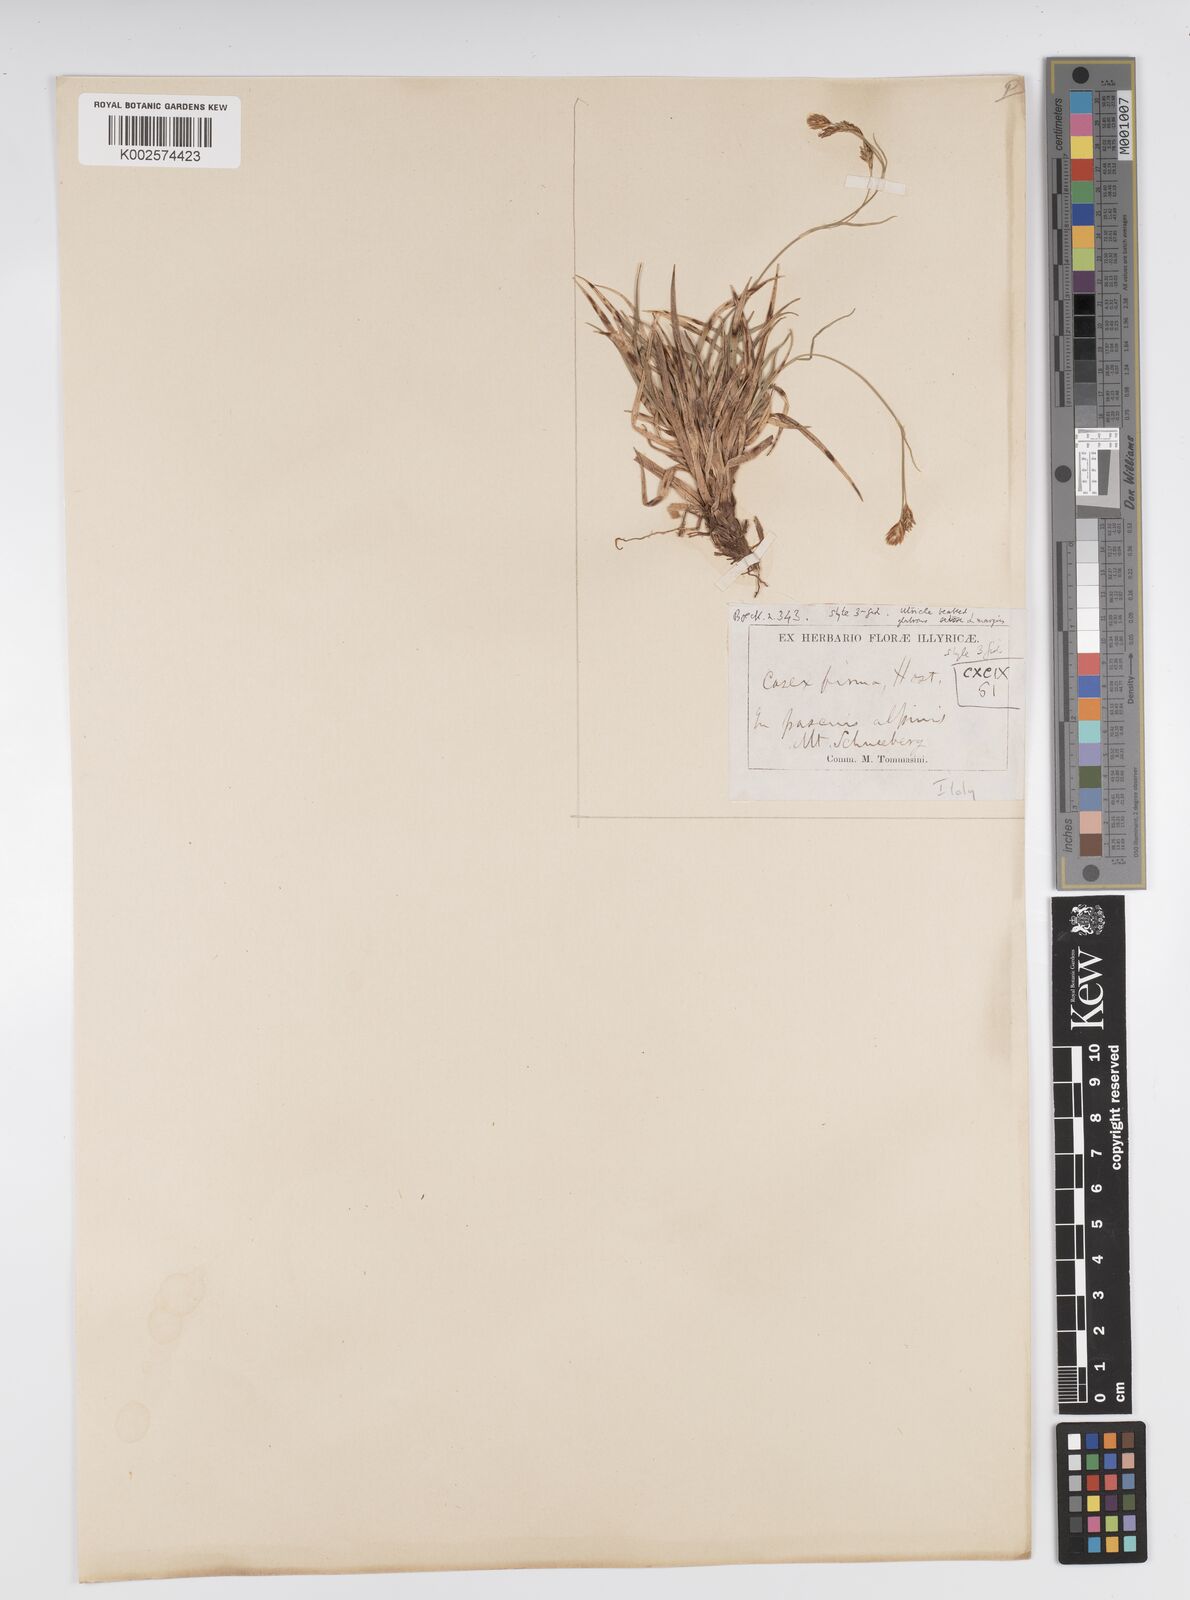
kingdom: Plantae
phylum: Tracheophyta
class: Liliopsida
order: Poales
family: Cyperaceae
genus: Carex
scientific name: Carex firma
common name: Dwarf pillow sedge
